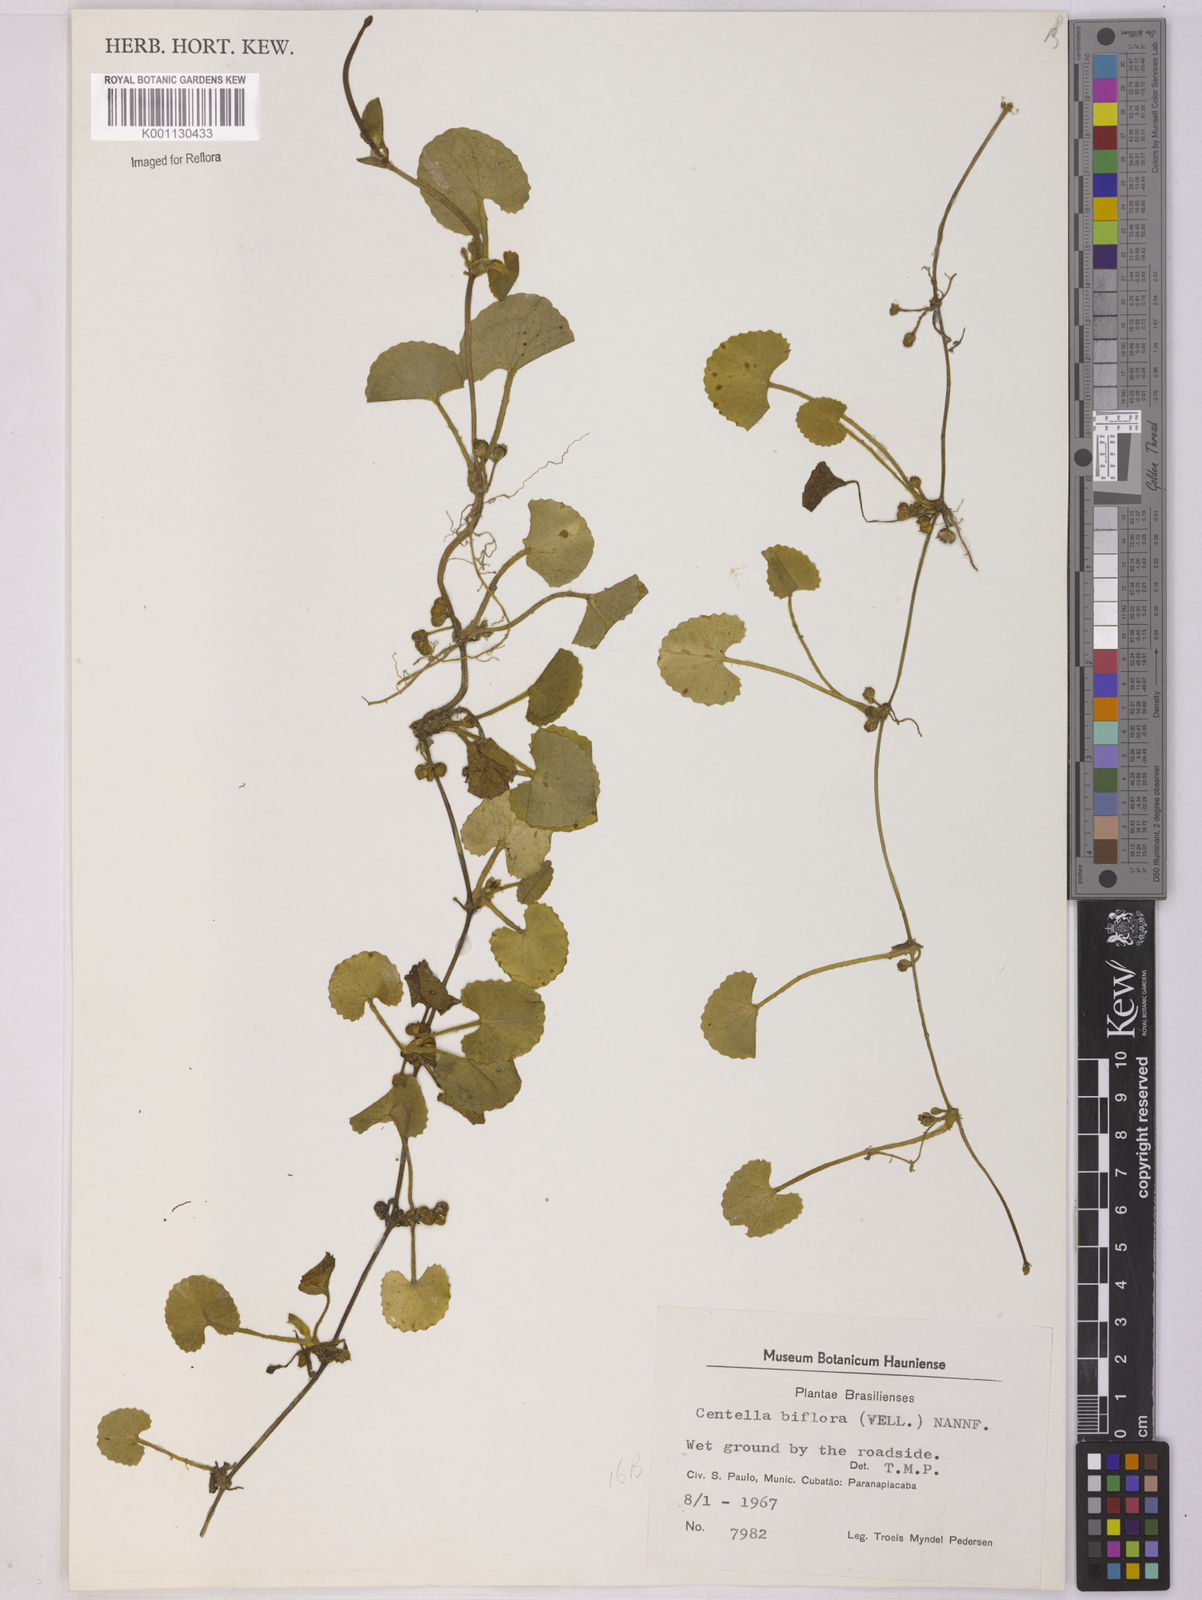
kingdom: Plantae
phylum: Tracheophyta
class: Magnoliopsida
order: Apiales
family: Apiaceae
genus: Centella
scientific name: Centella erecta
